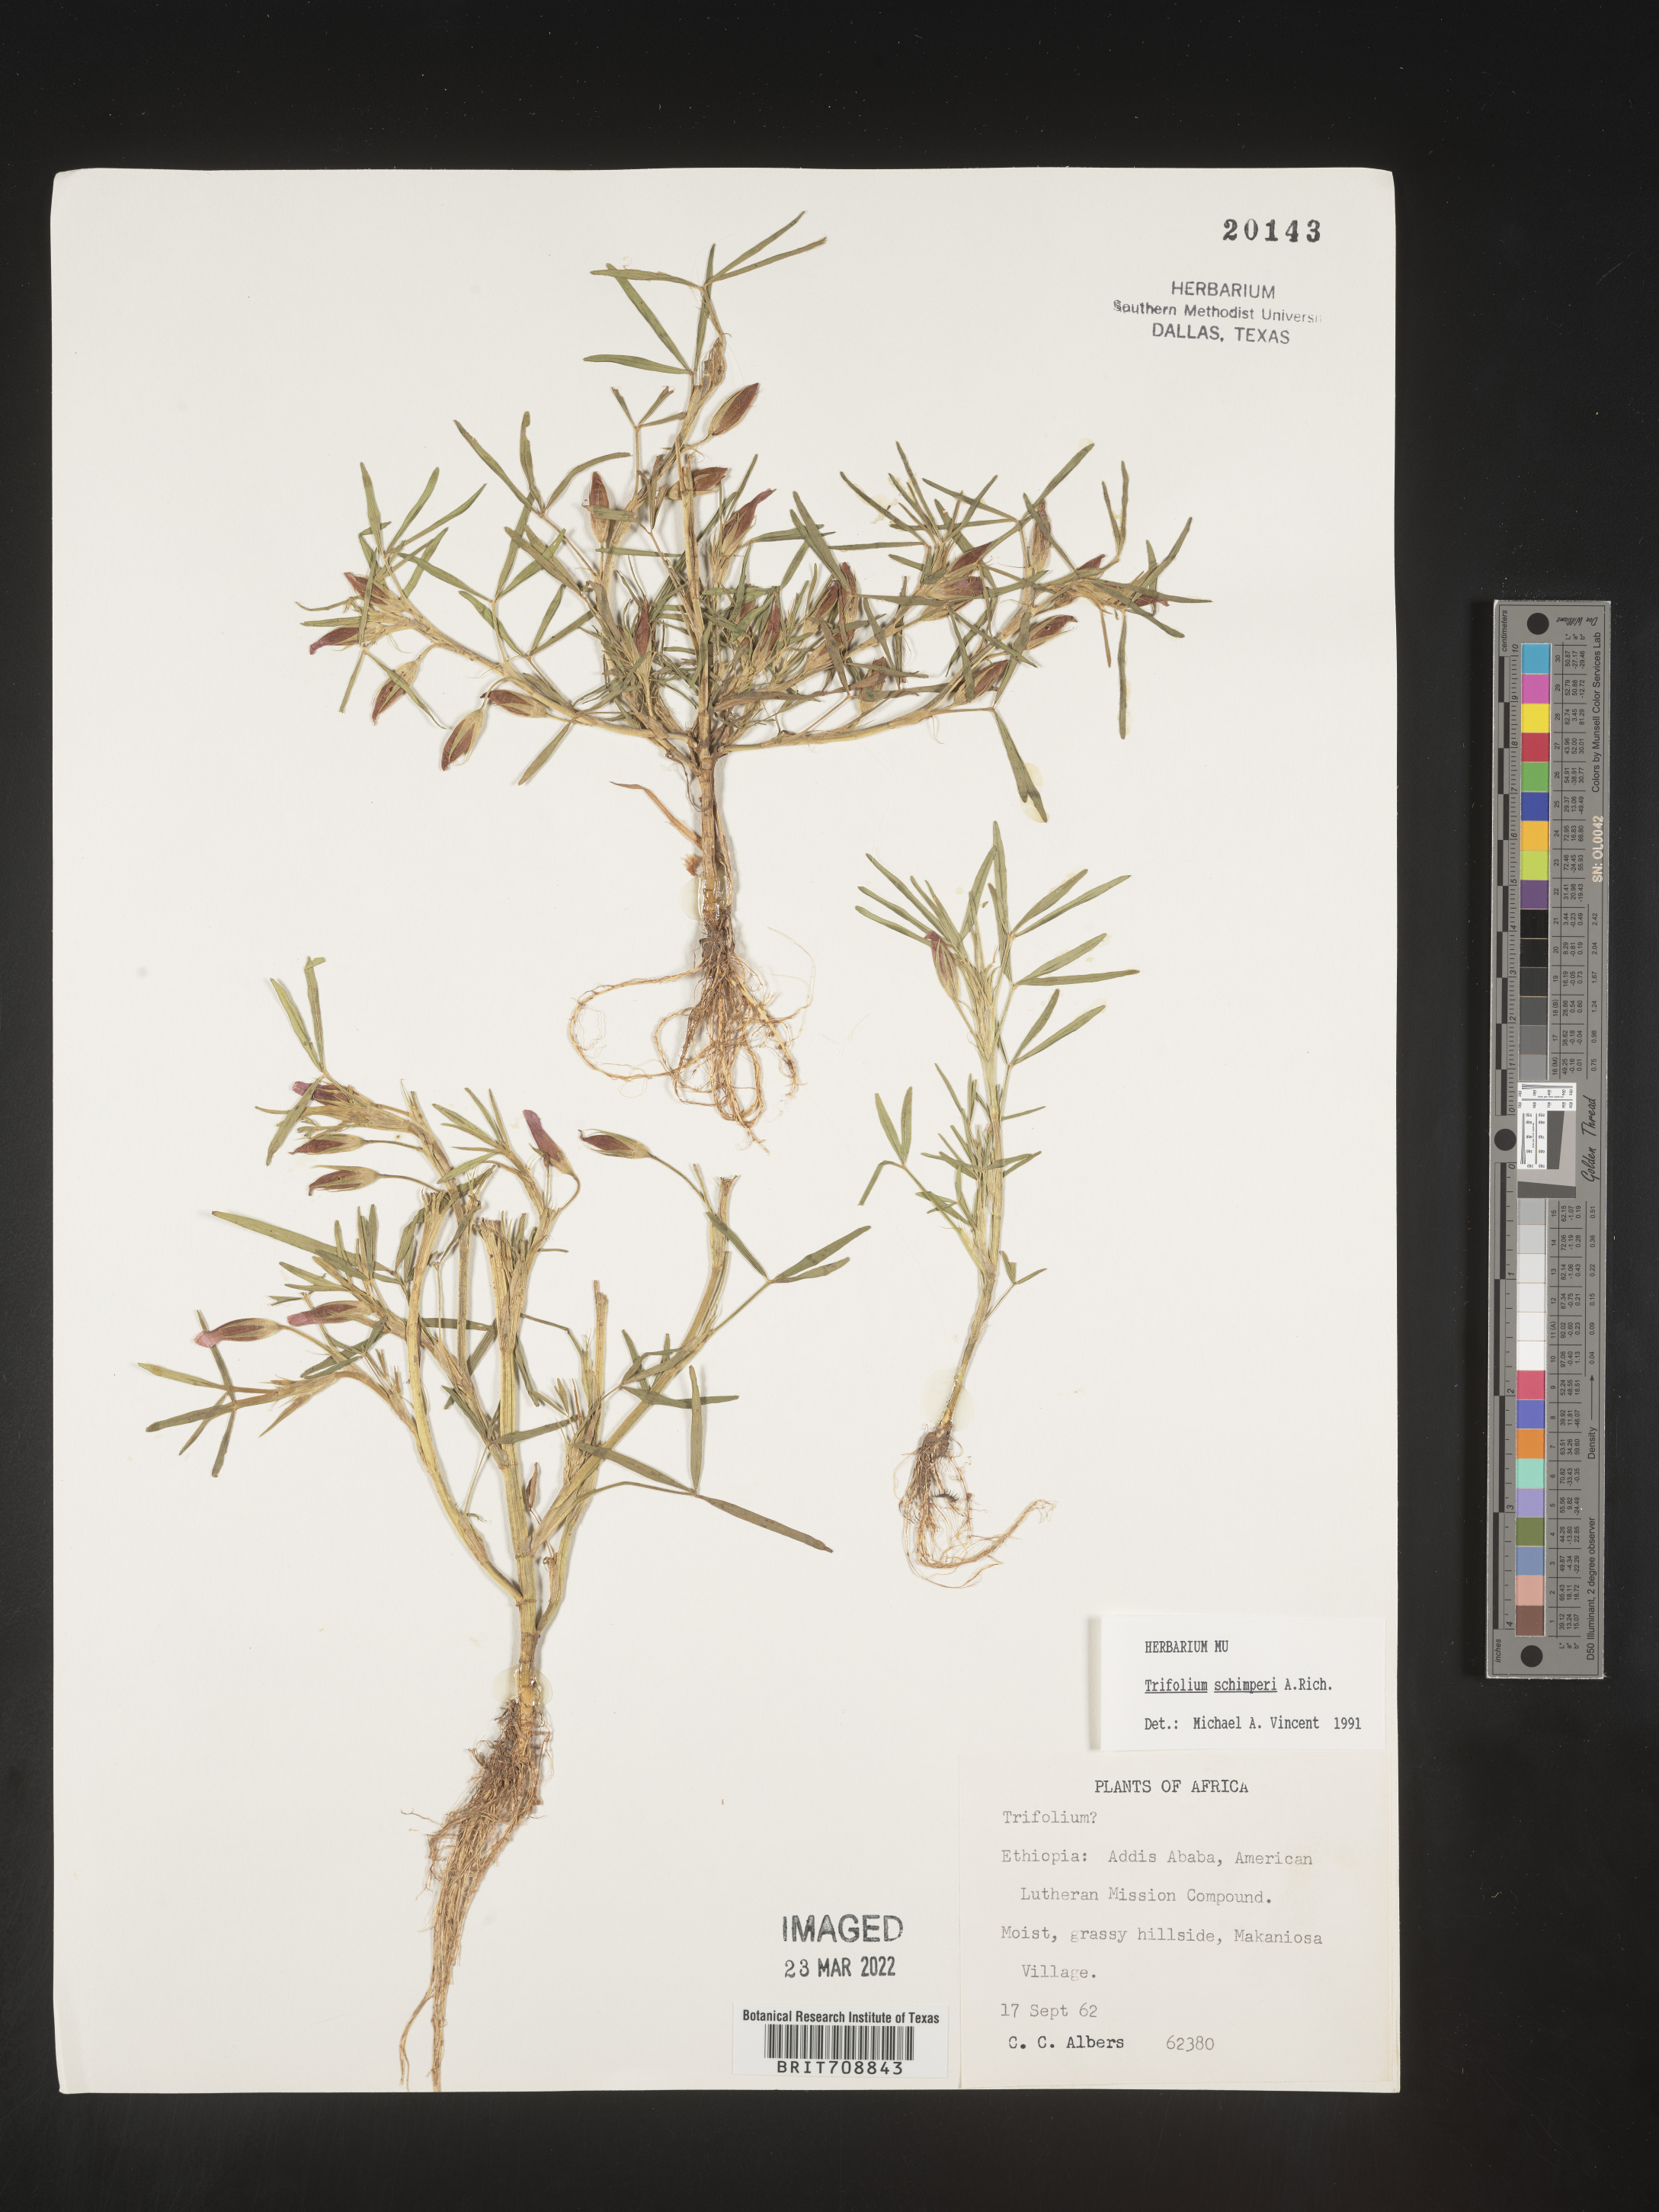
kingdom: Plantae
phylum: Tracheophyta
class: Magnoliopsida
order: Fabales
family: Fabaceae
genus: Trifolium
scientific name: Trifolium
